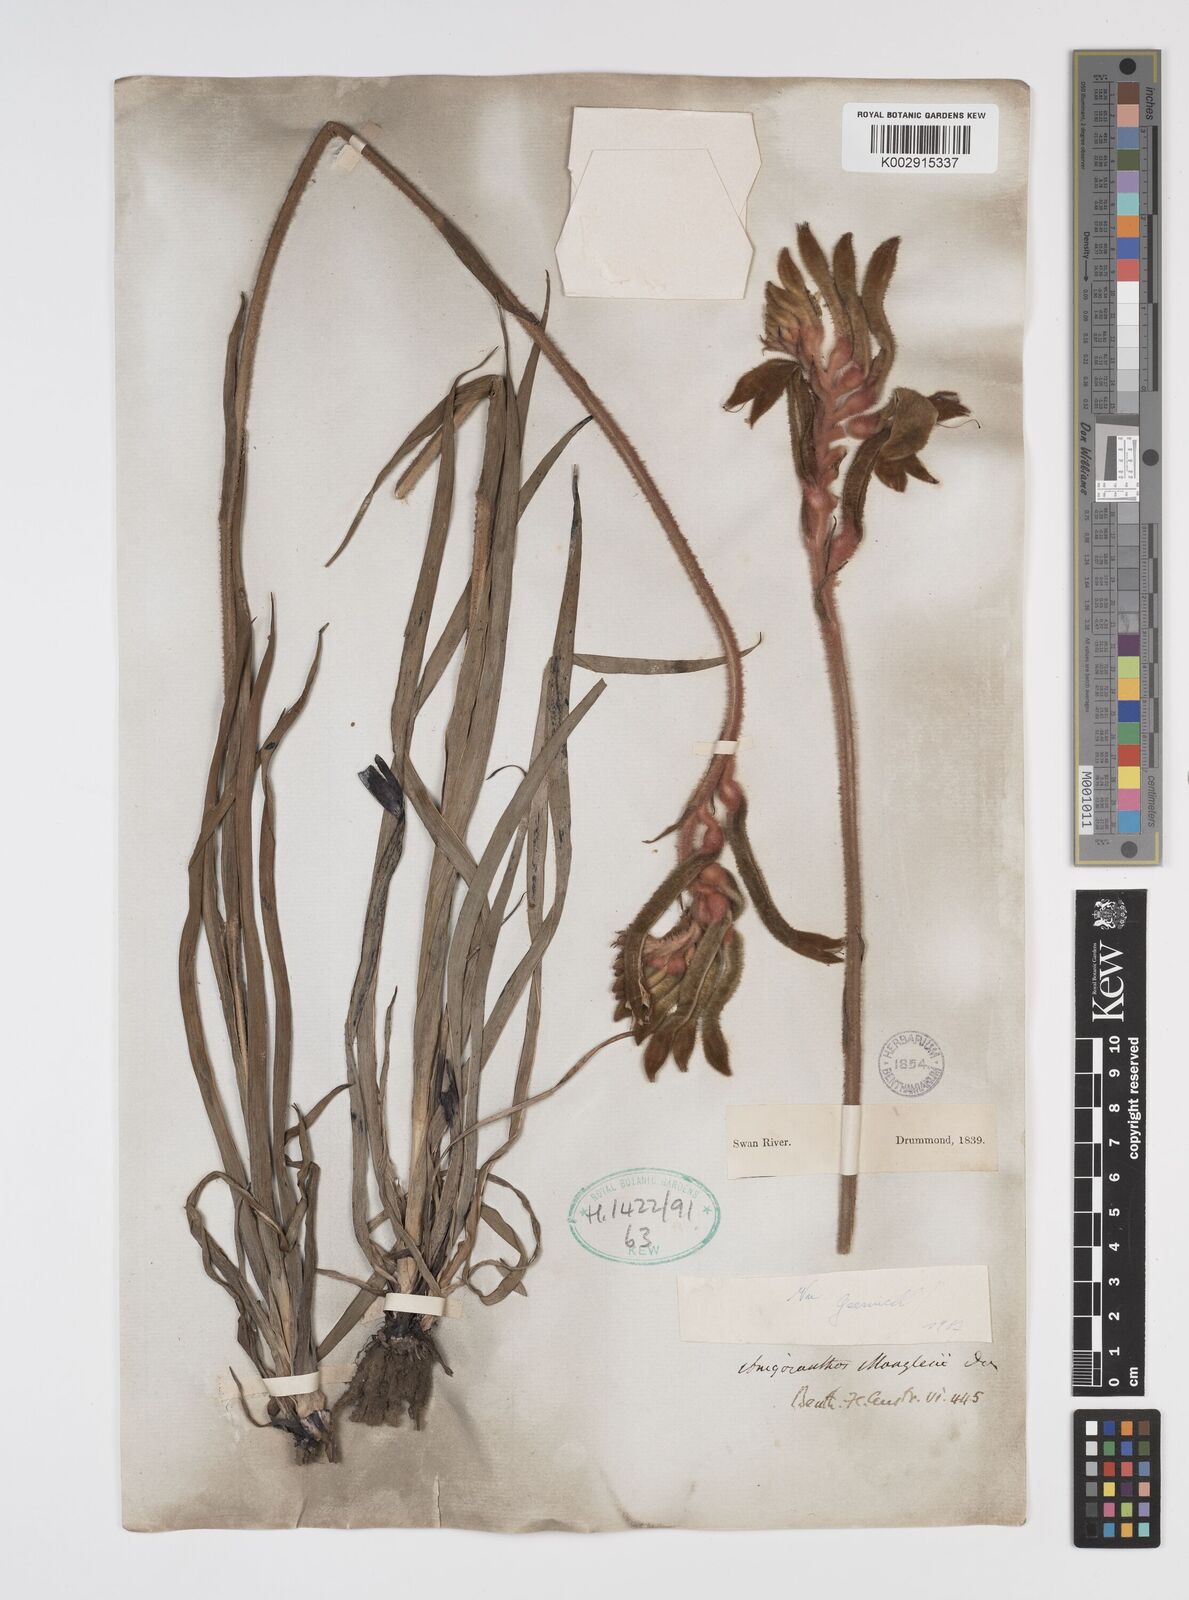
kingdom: Plantae
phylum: Tracheophyta
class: Liliopsida
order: Commelinales
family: Haemodoraceae
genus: Anigozanthos
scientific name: Anigozanthos manglesii
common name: Mangles's kangaroo-paw
